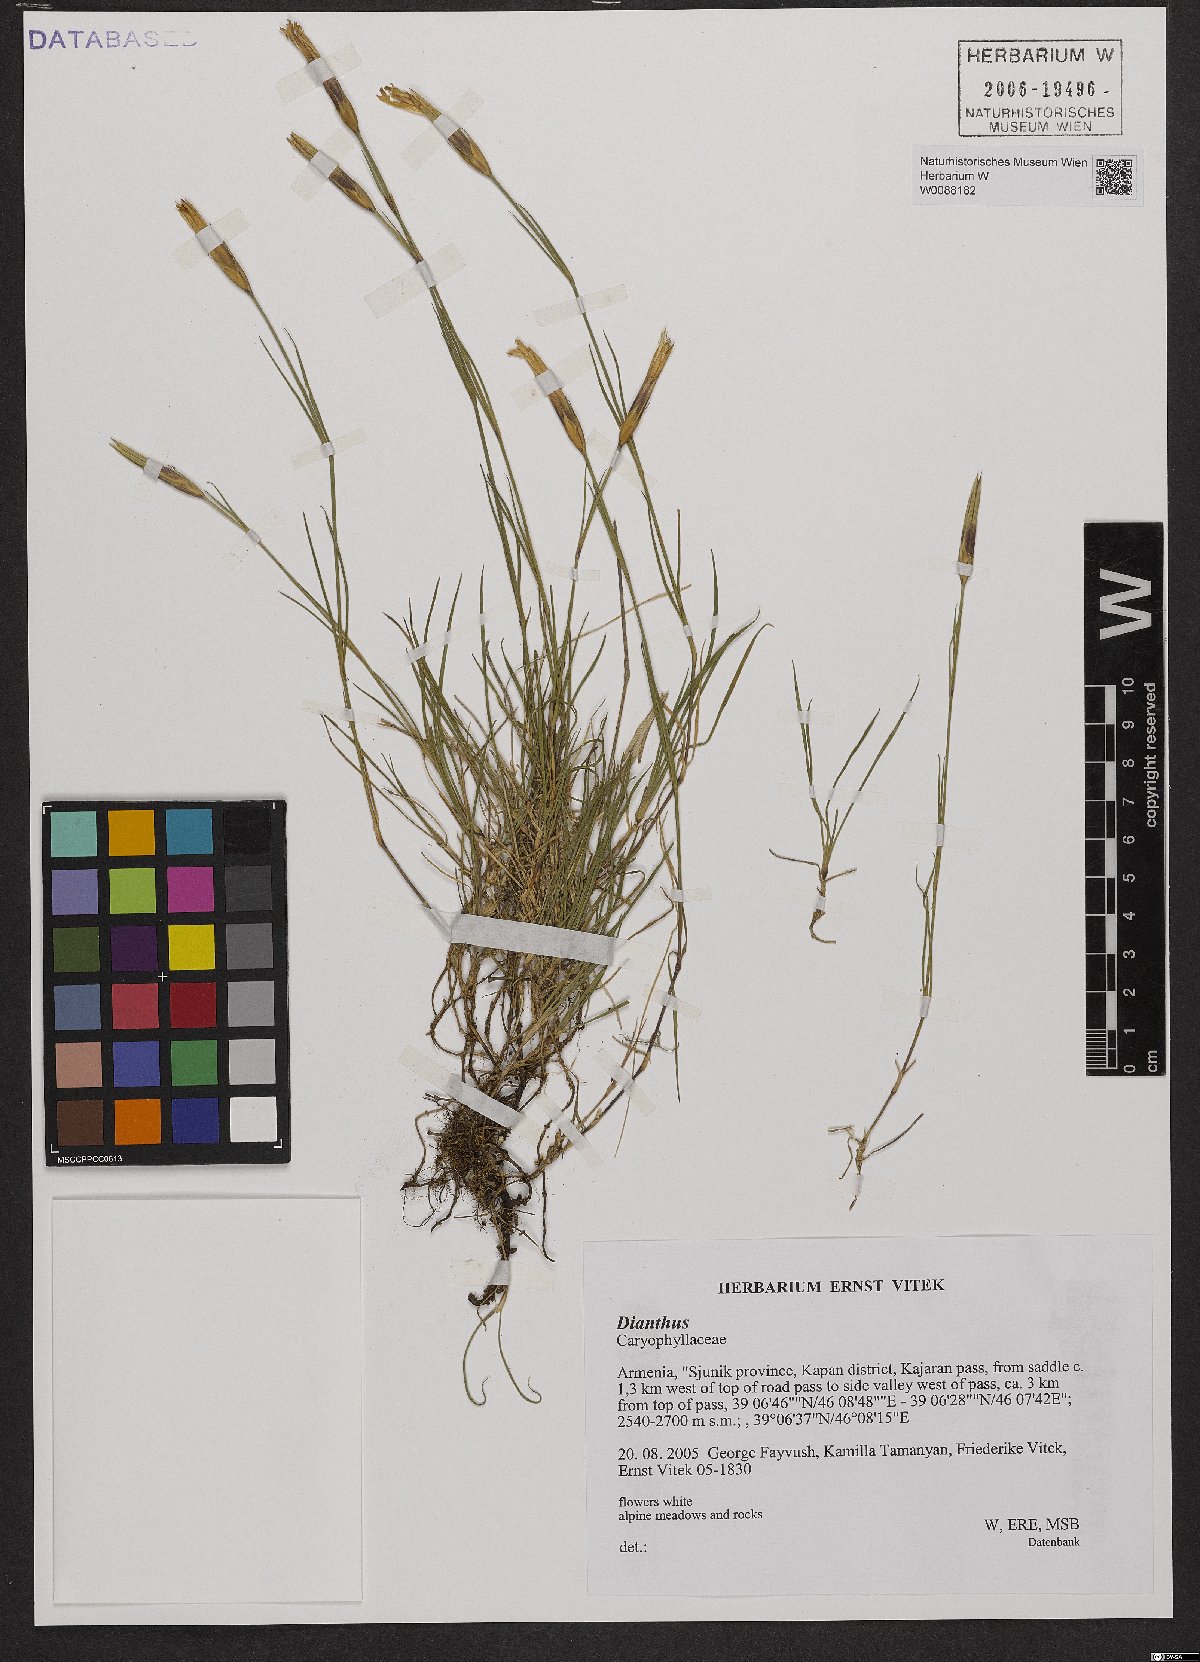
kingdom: Plantae
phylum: Tracheophyta
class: Magnoliopsida
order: Caryophyllales
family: Caryophyllaceae
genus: Dianthus
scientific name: Dianthus
